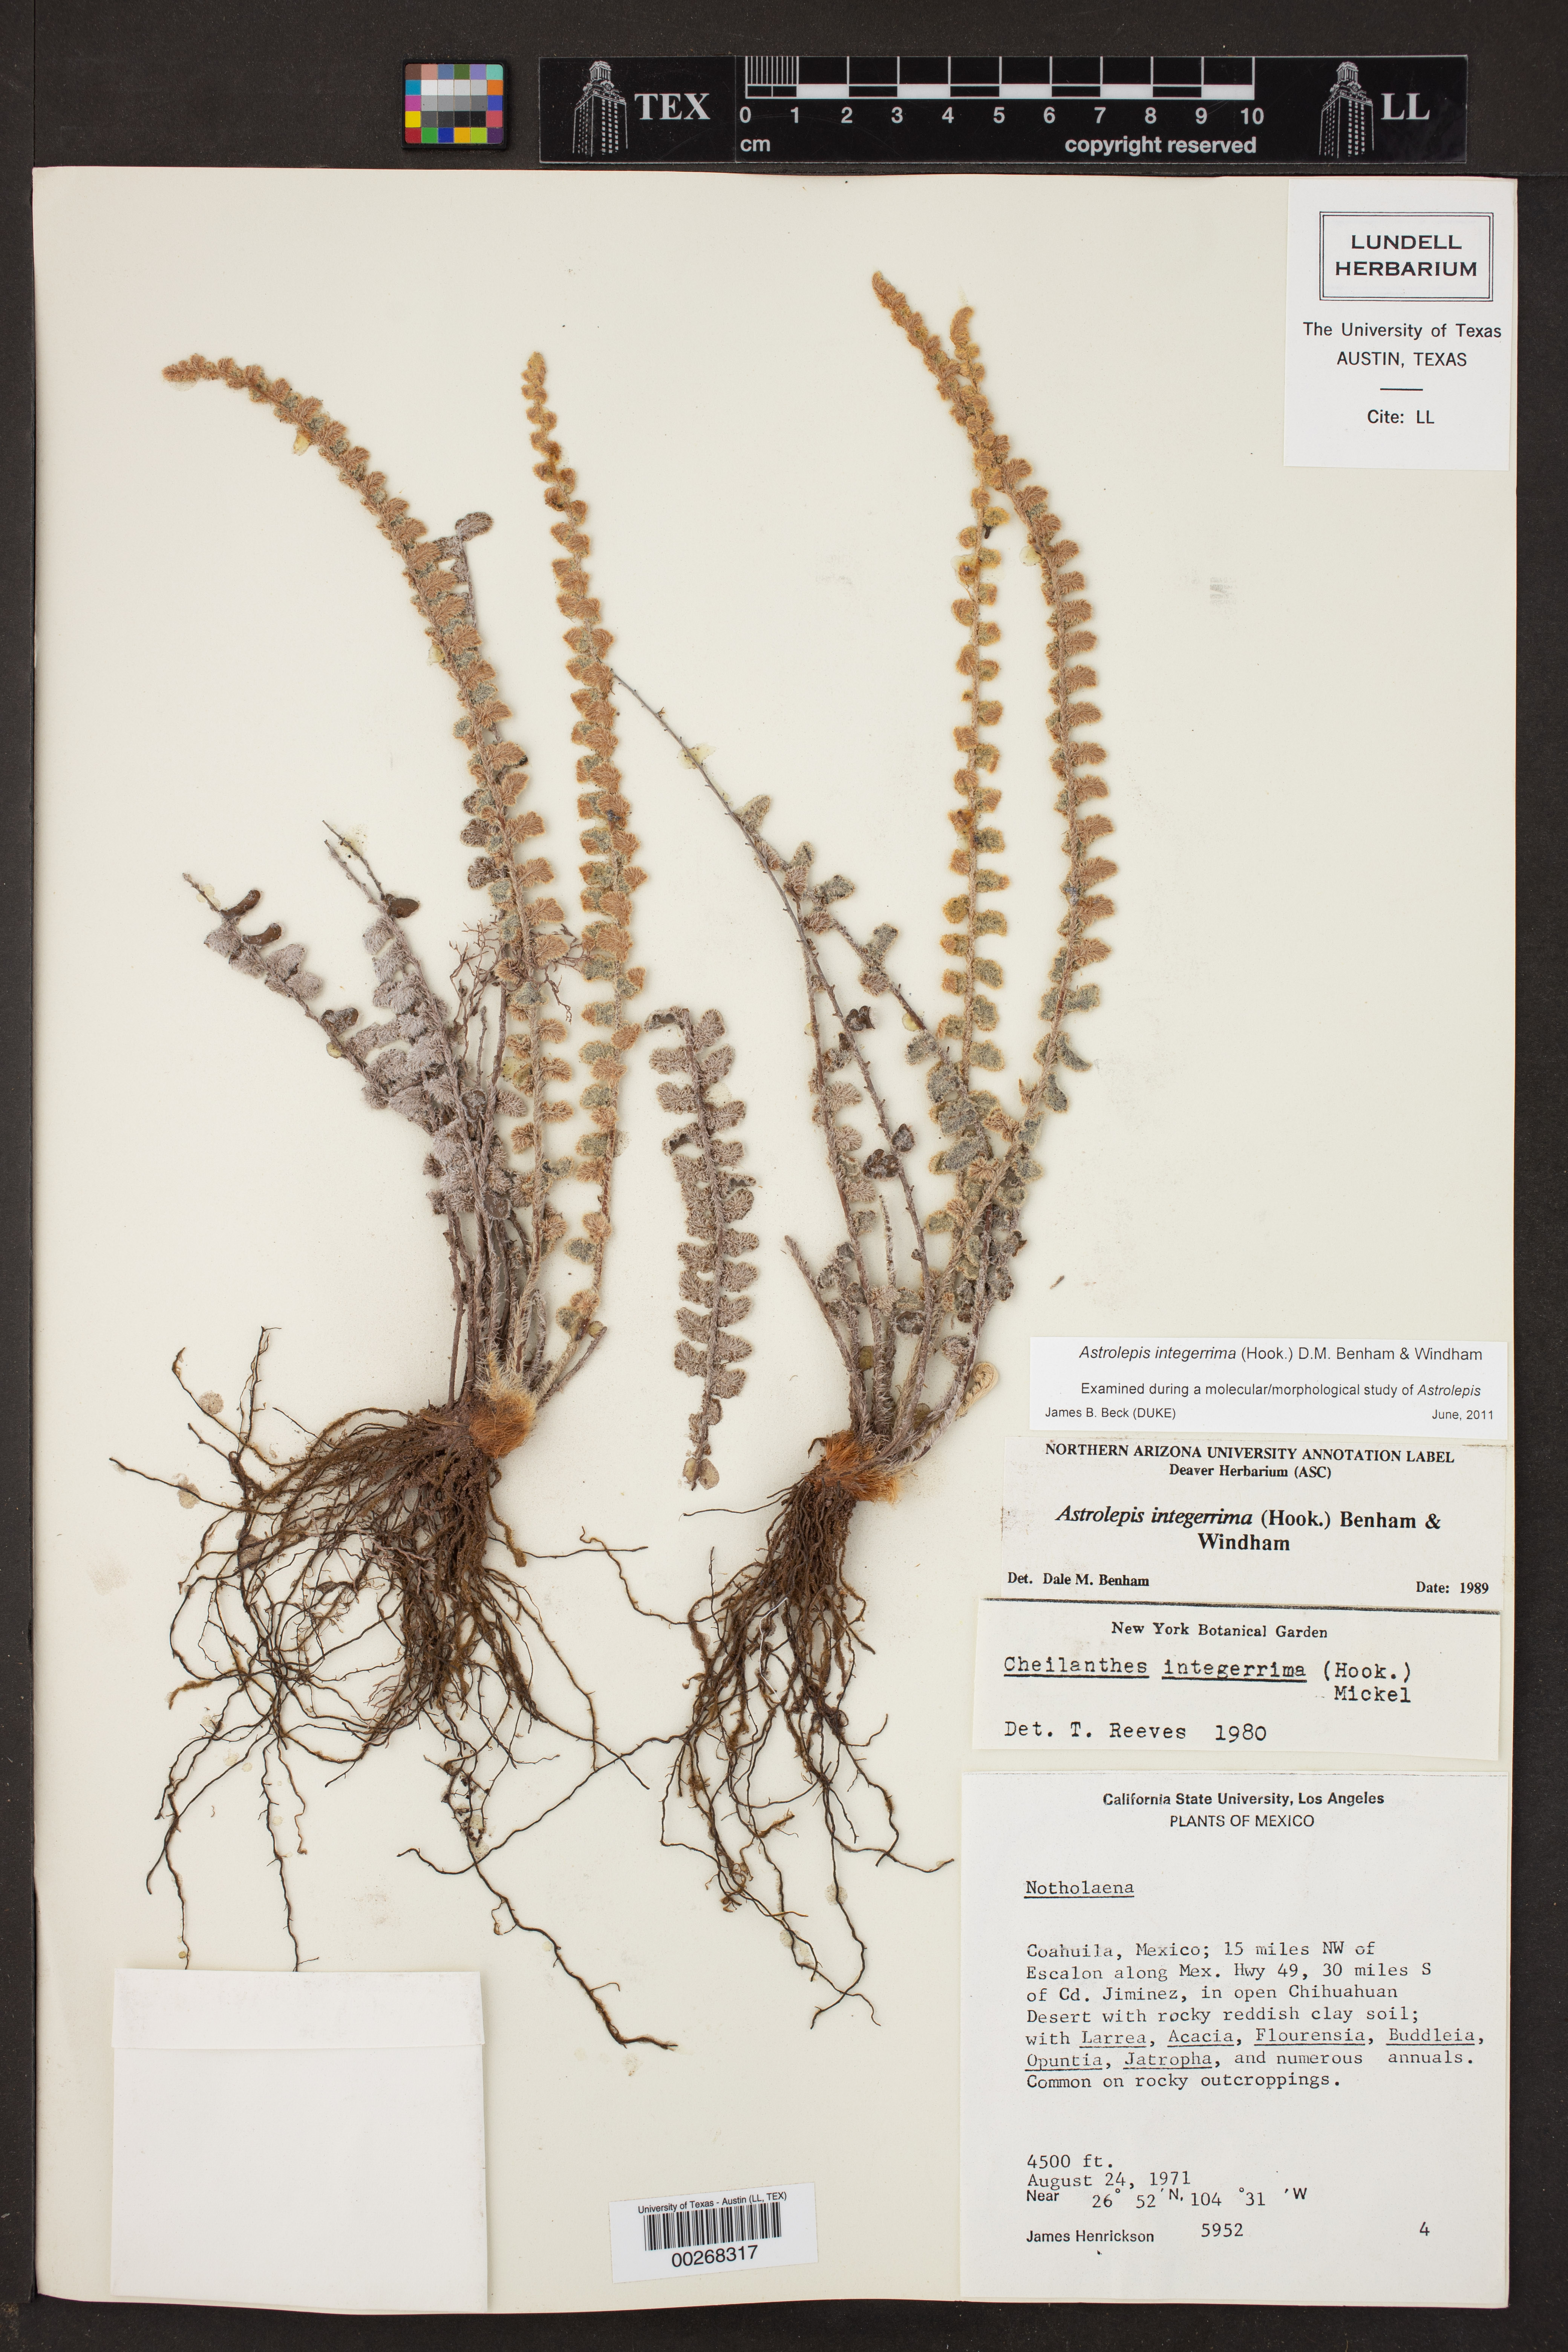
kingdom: Plantae
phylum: Tracheophyta
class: Polypodiopsida
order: Polypodiales
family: Pteridaceae
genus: Astrolepis
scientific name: Astrolepis integerrima
